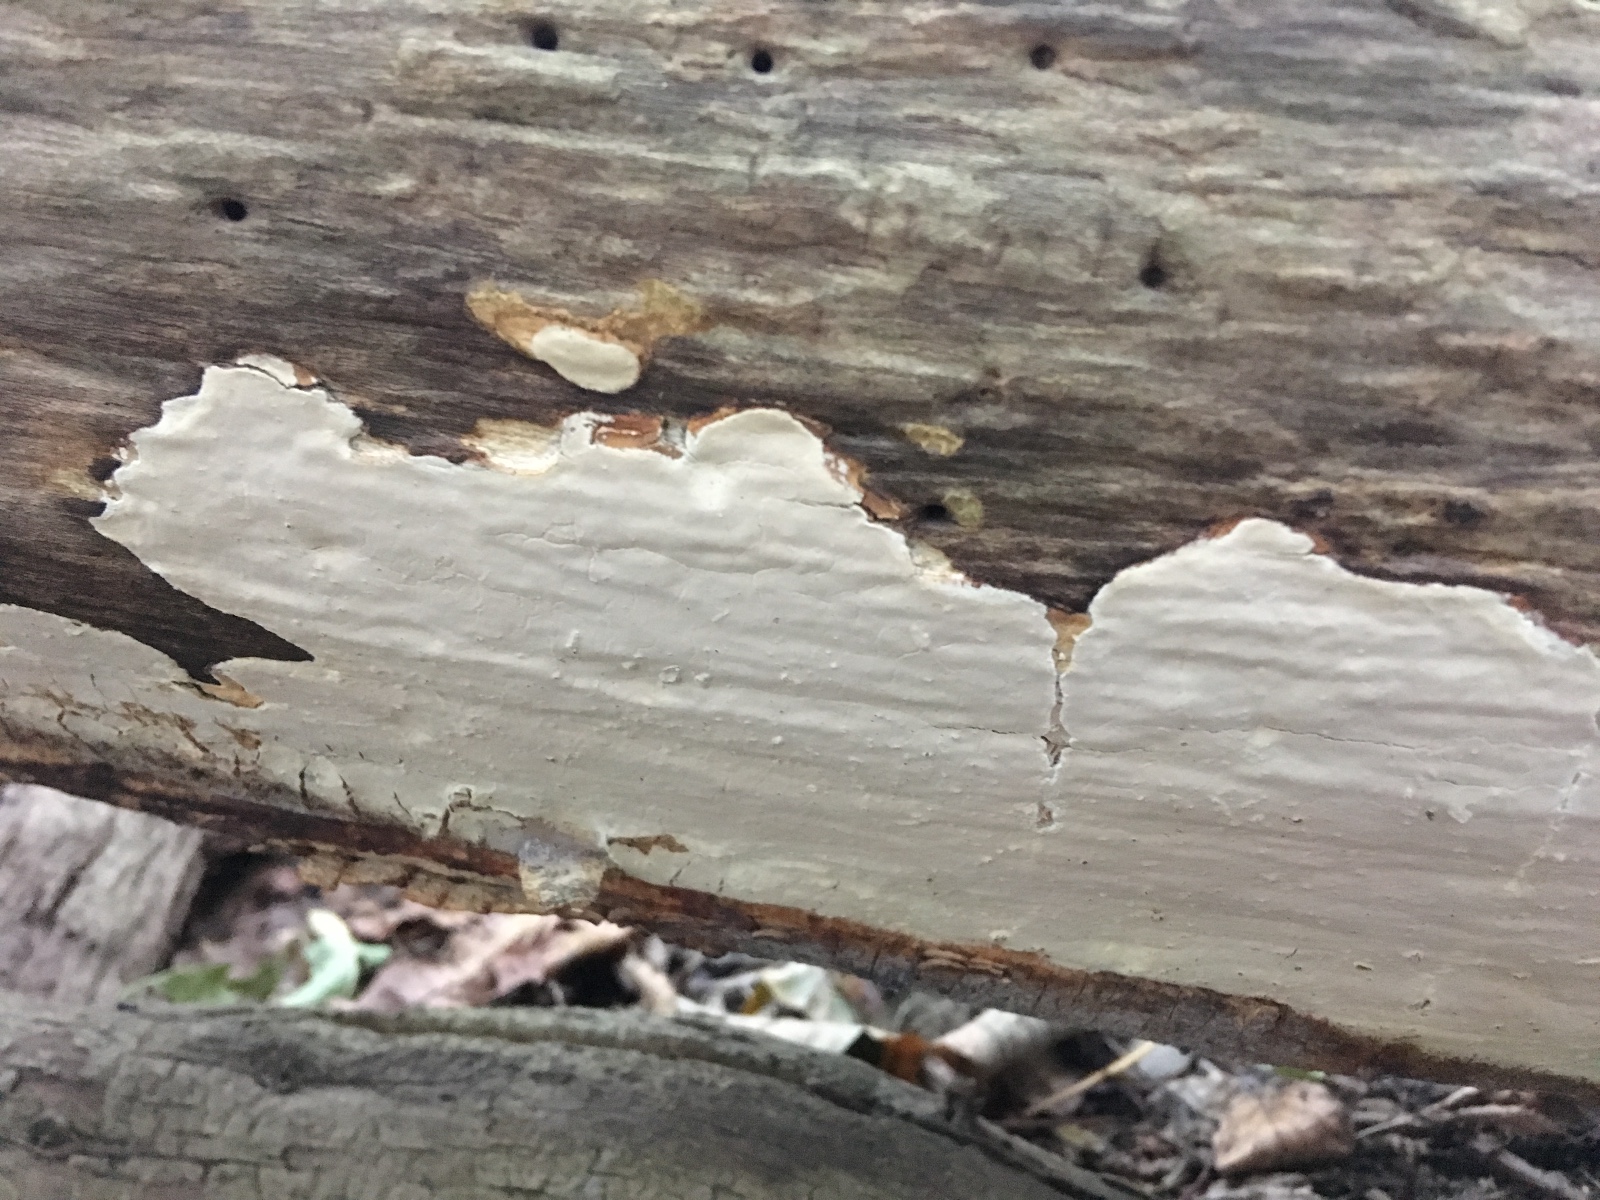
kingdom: Fungi
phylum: Basidiomycota
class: Agaricomycetes
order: Russulales
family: Peniophoraceae
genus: Scytinostroma
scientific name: Scytinostroma hemidichophyticum
